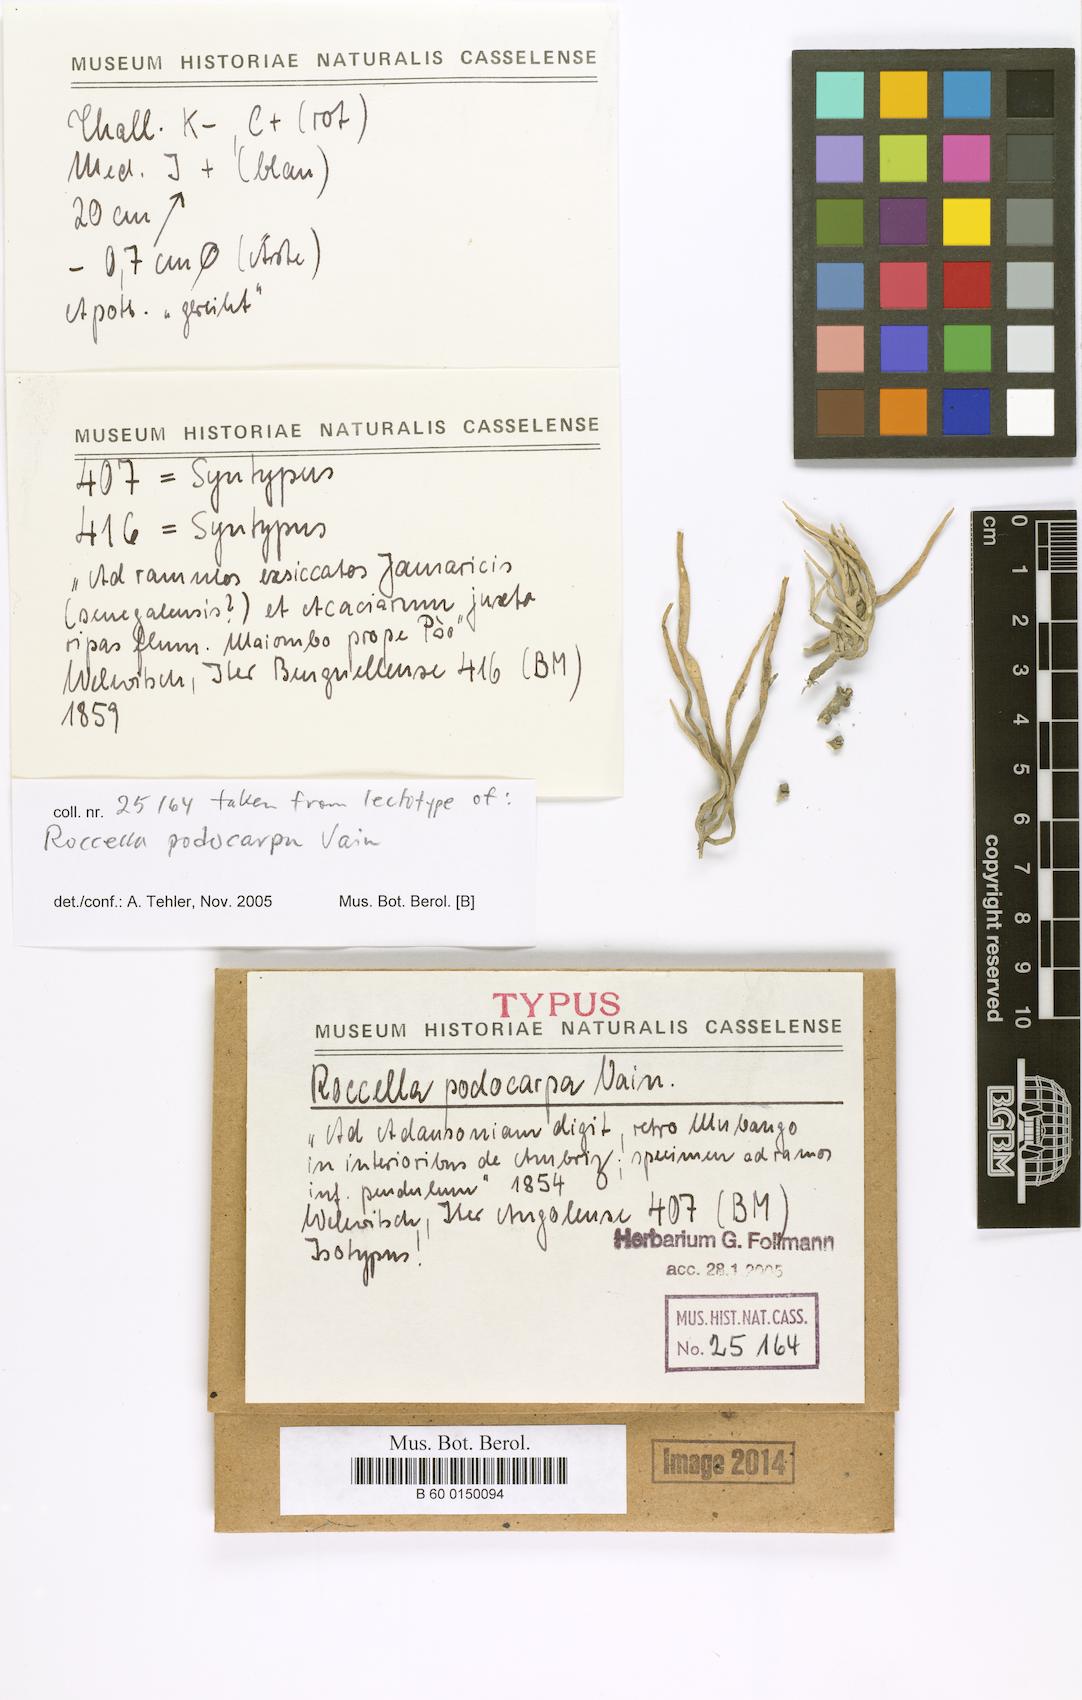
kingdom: Fungi
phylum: Ascomycota
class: Arthoniomycetes
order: Arthoniales
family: Roccellaceae
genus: Roccella
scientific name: Roccella
